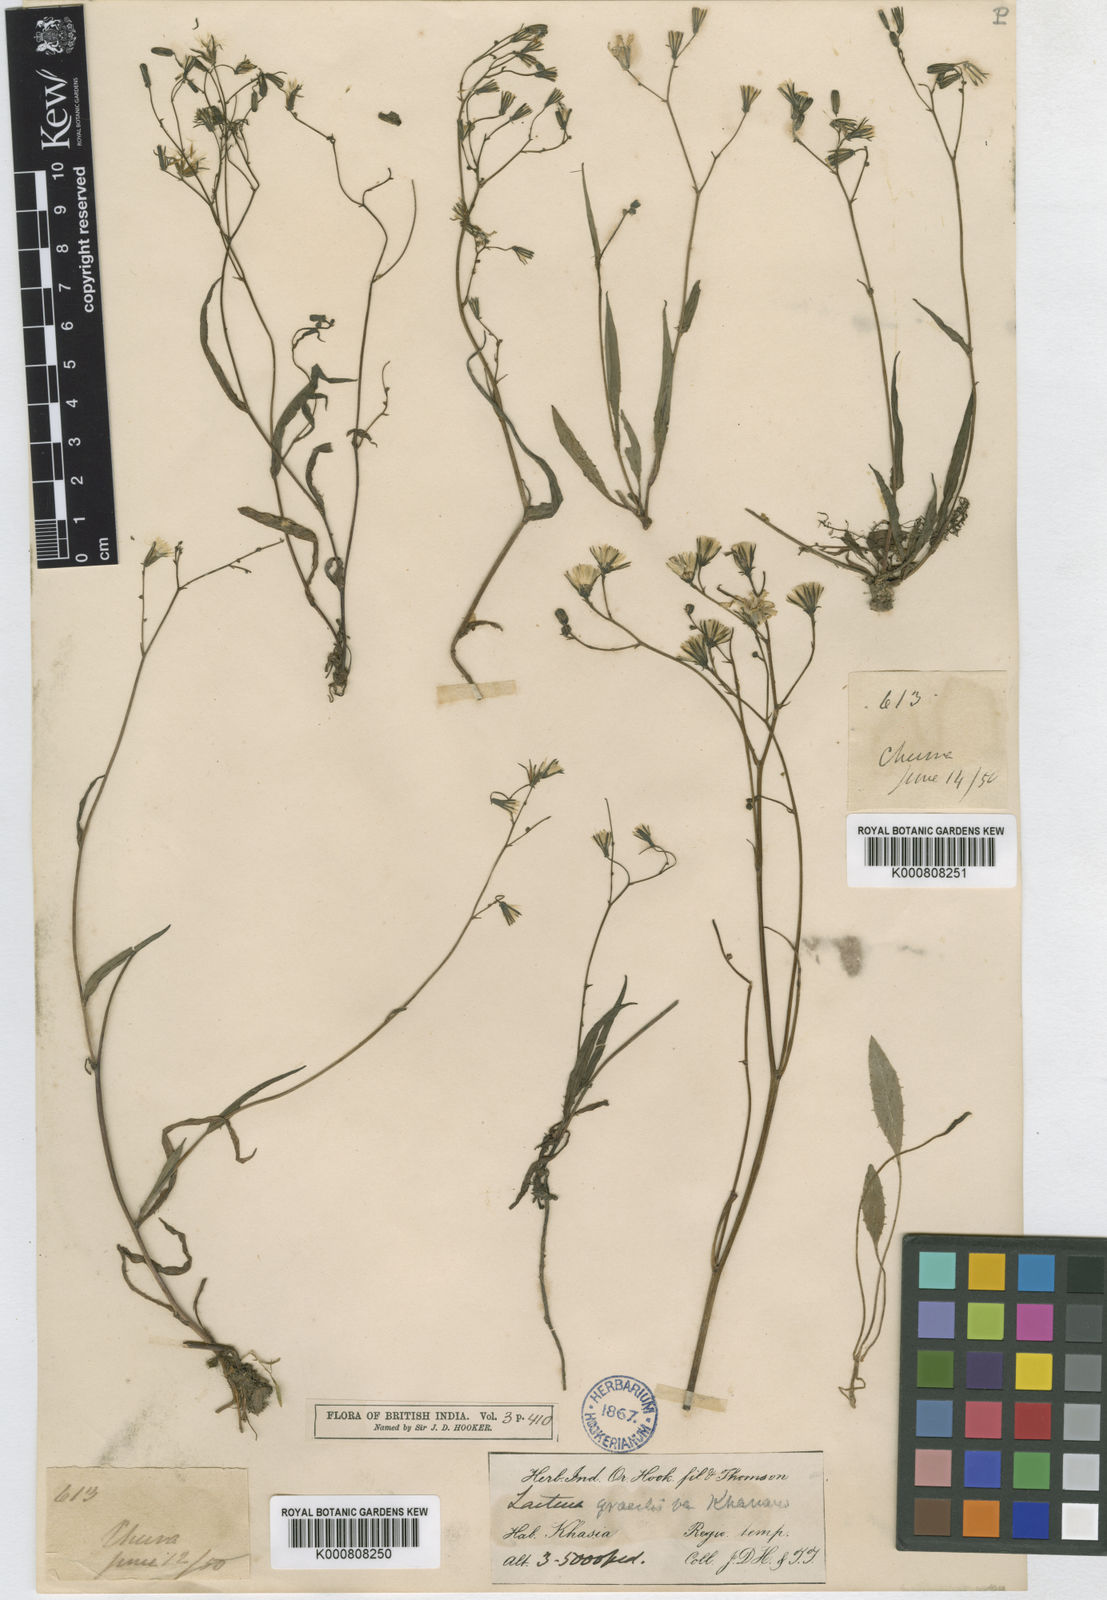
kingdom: Plantae
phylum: Tracheophyta
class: Magnoliopsida
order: Asterales
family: Asteraceae
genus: Ixeridium
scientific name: Ixeridium beauverdianum
